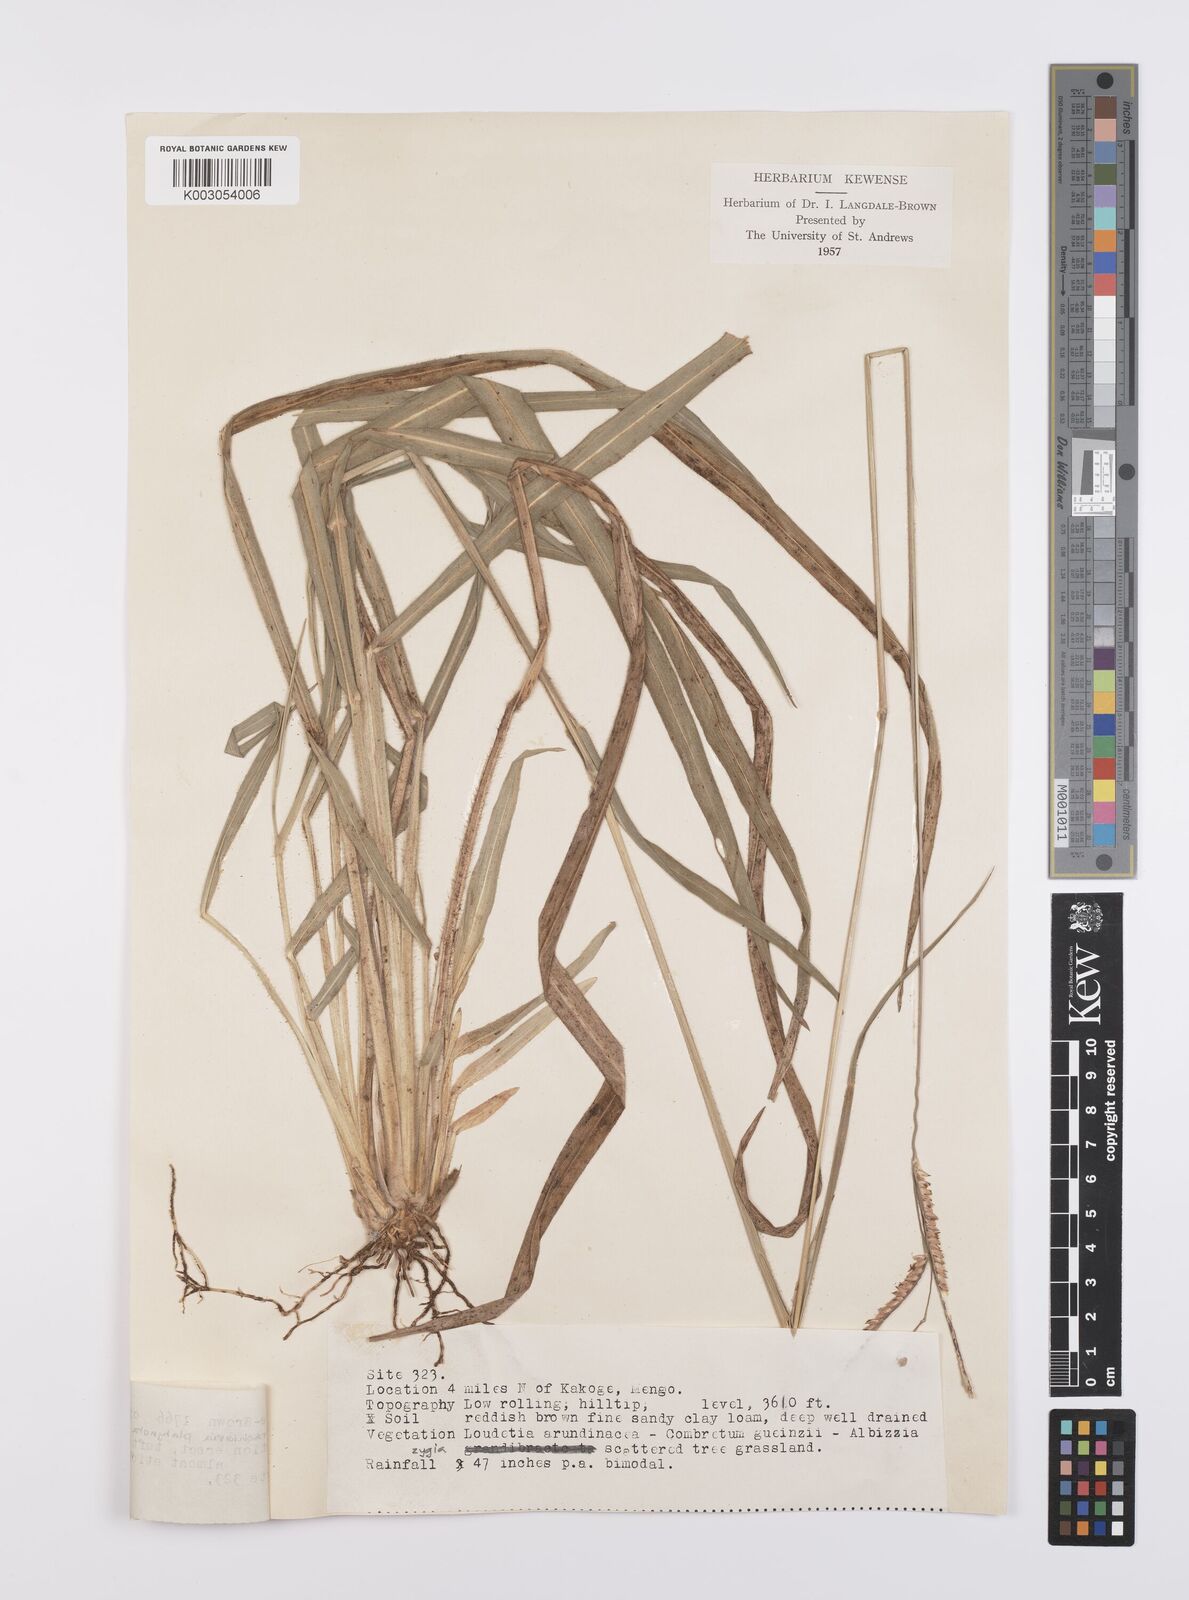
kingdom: Plantae
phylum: Tracheophyta
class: Liliopsida
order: Poales
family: Poaceae
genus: Urochloa
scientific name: Urochloa platynota
